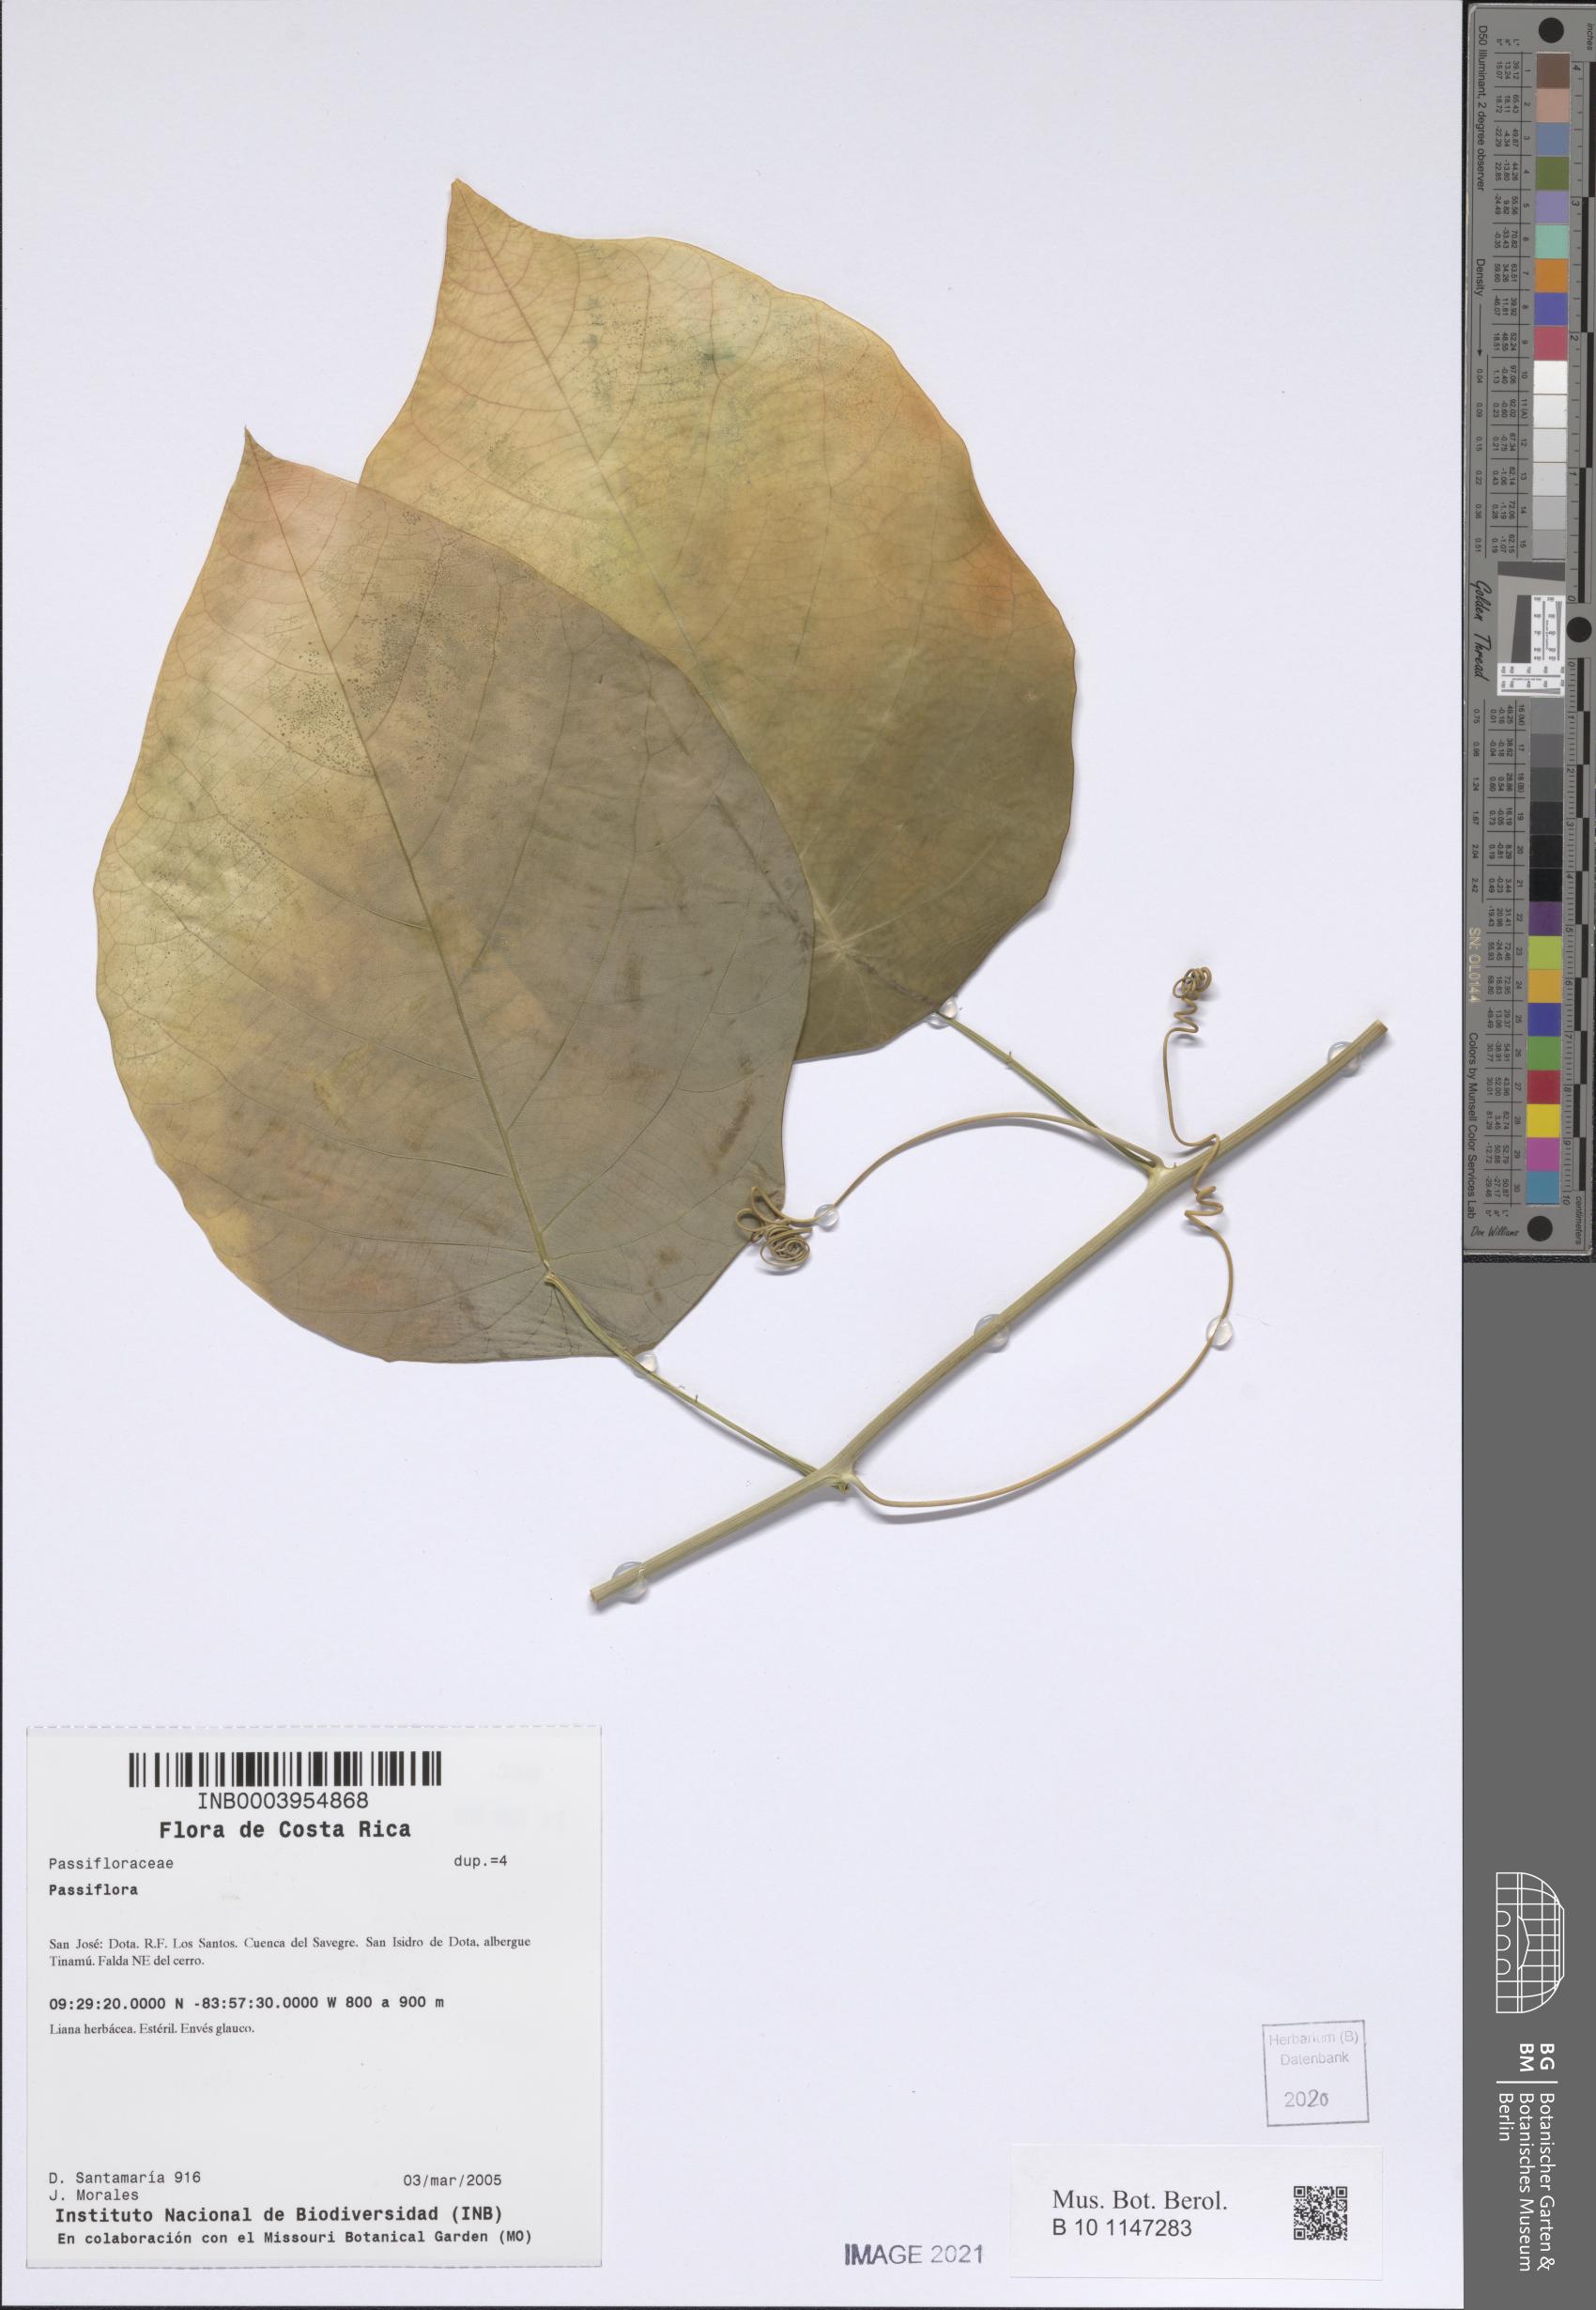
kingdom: Plantae
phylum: Tracheophyta
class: Magnoliopsida
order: Malpighiales
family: Passifloraceae
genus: Passiflora
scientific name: Passiflora
